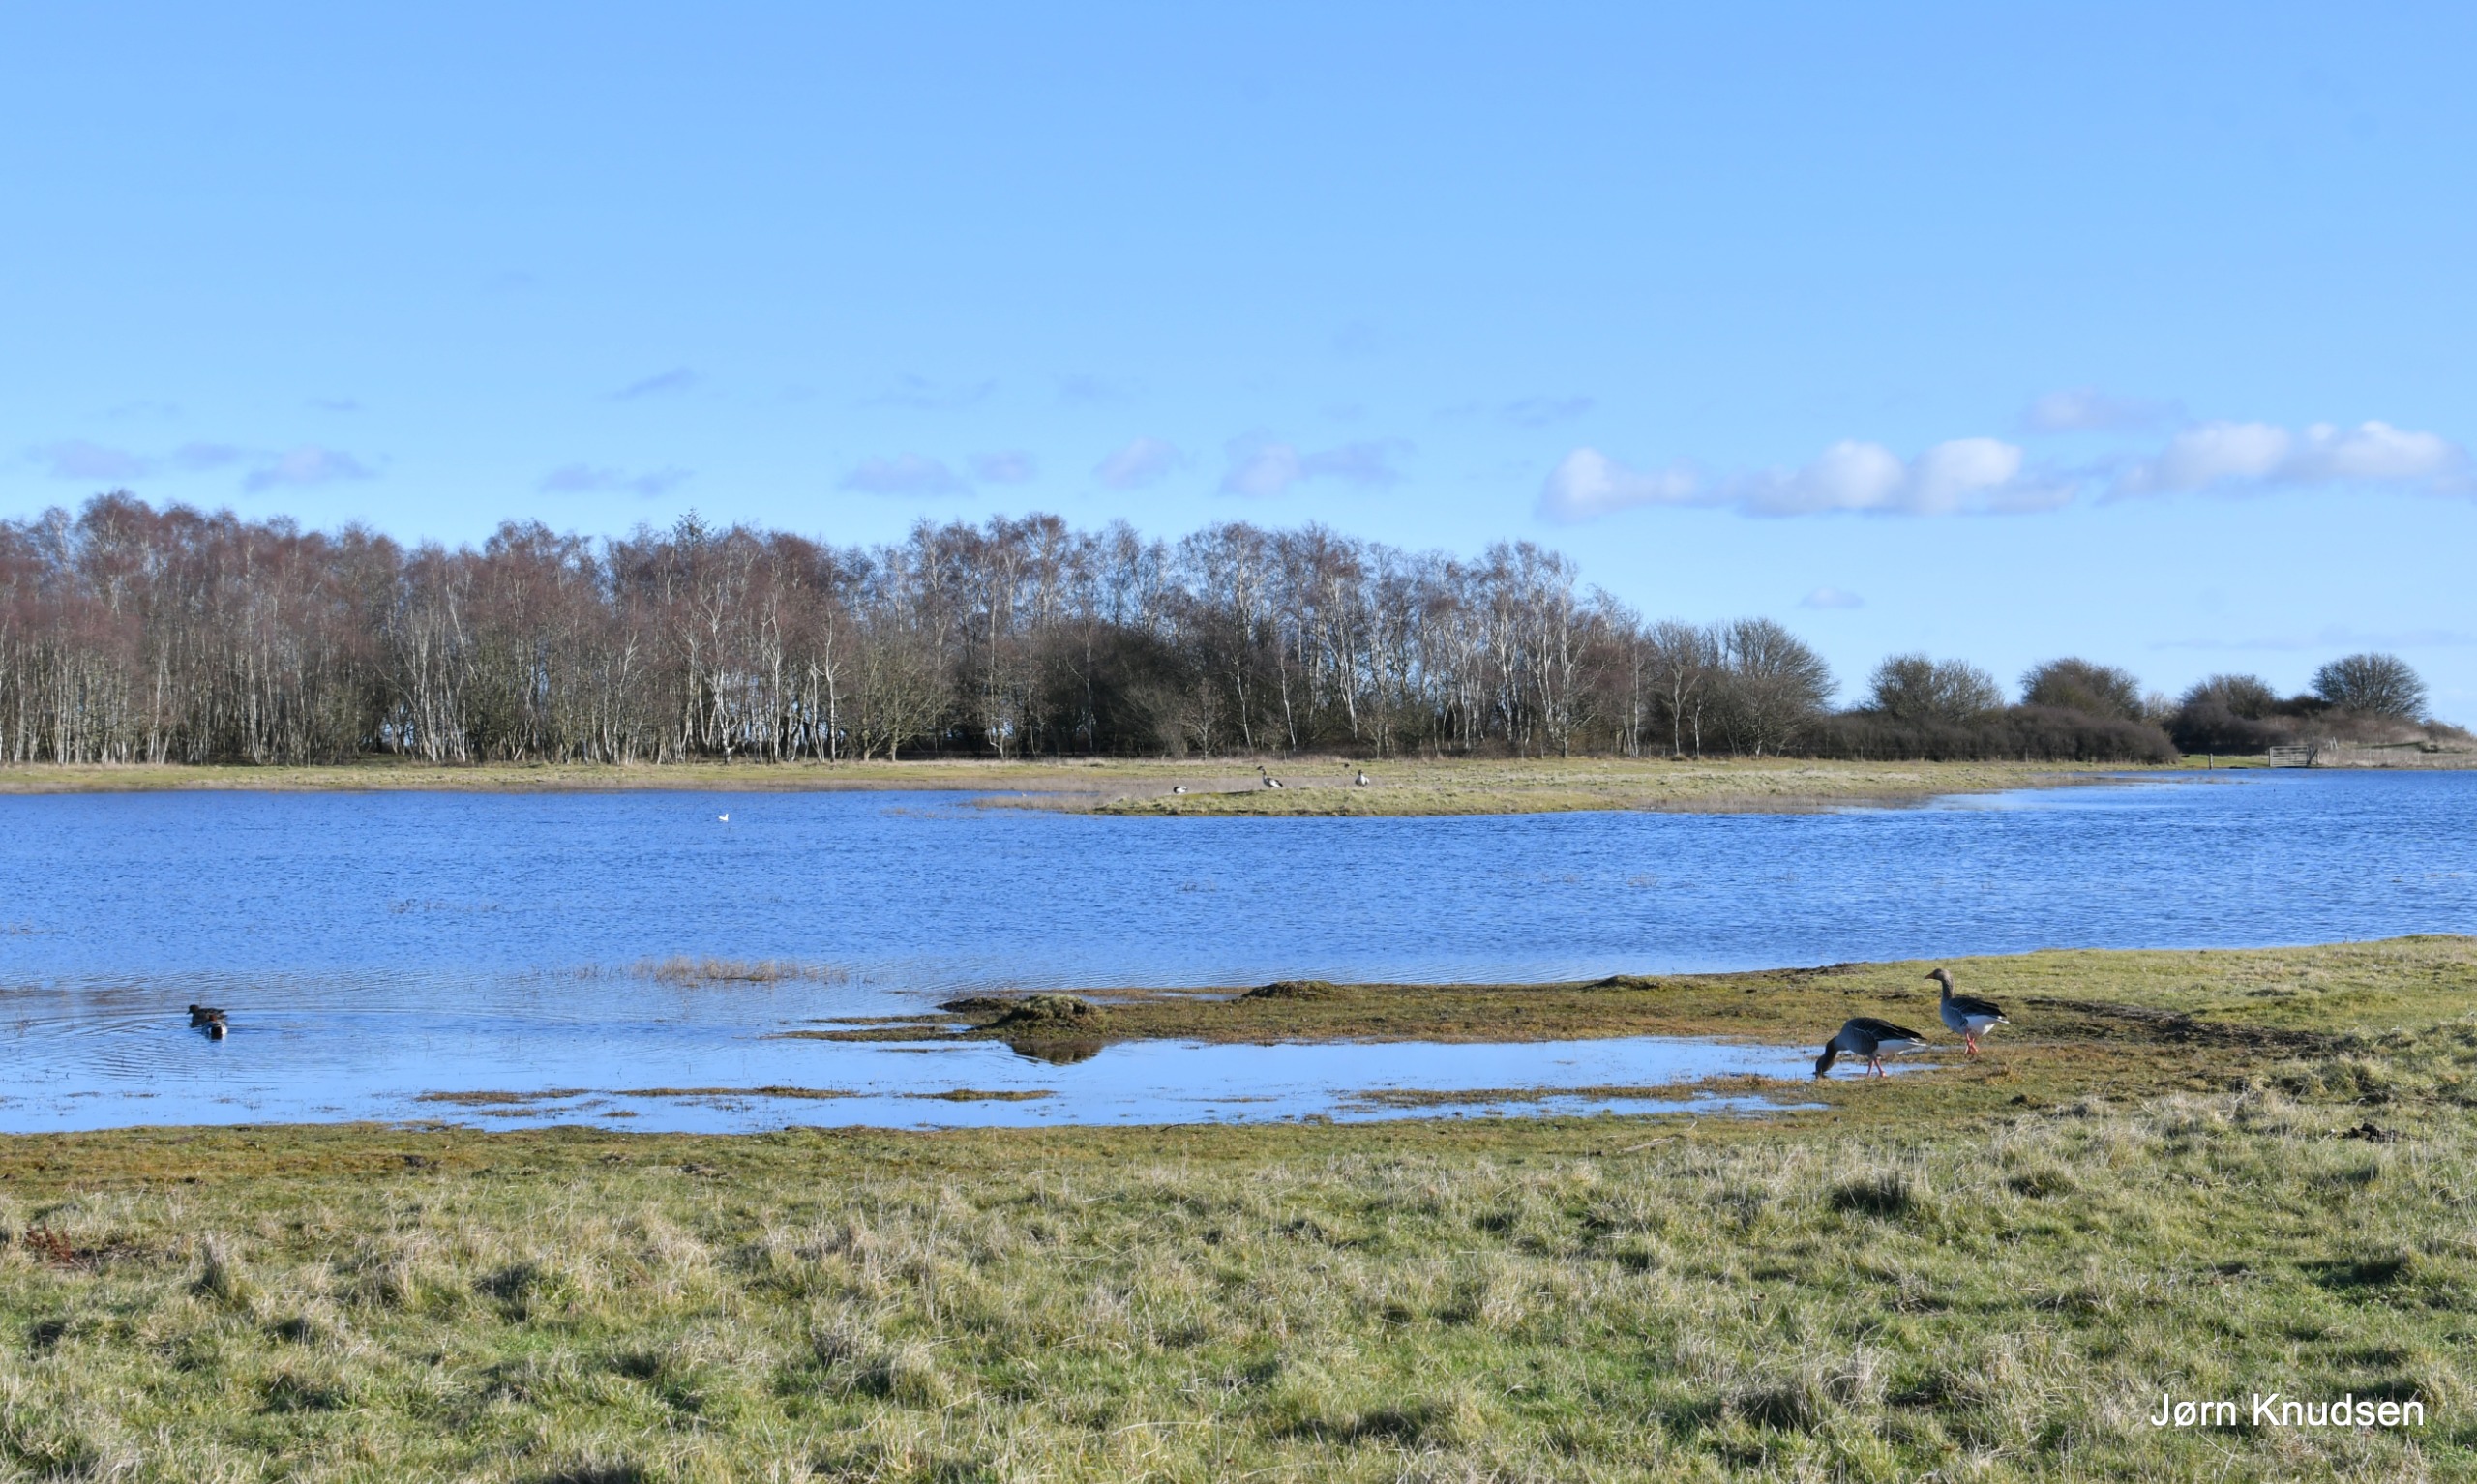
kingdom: Animalia
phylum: Chordata
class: Aves
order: Anseriformes
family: Anatidae
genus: Anser
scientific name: Anser anser
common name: Grågås
